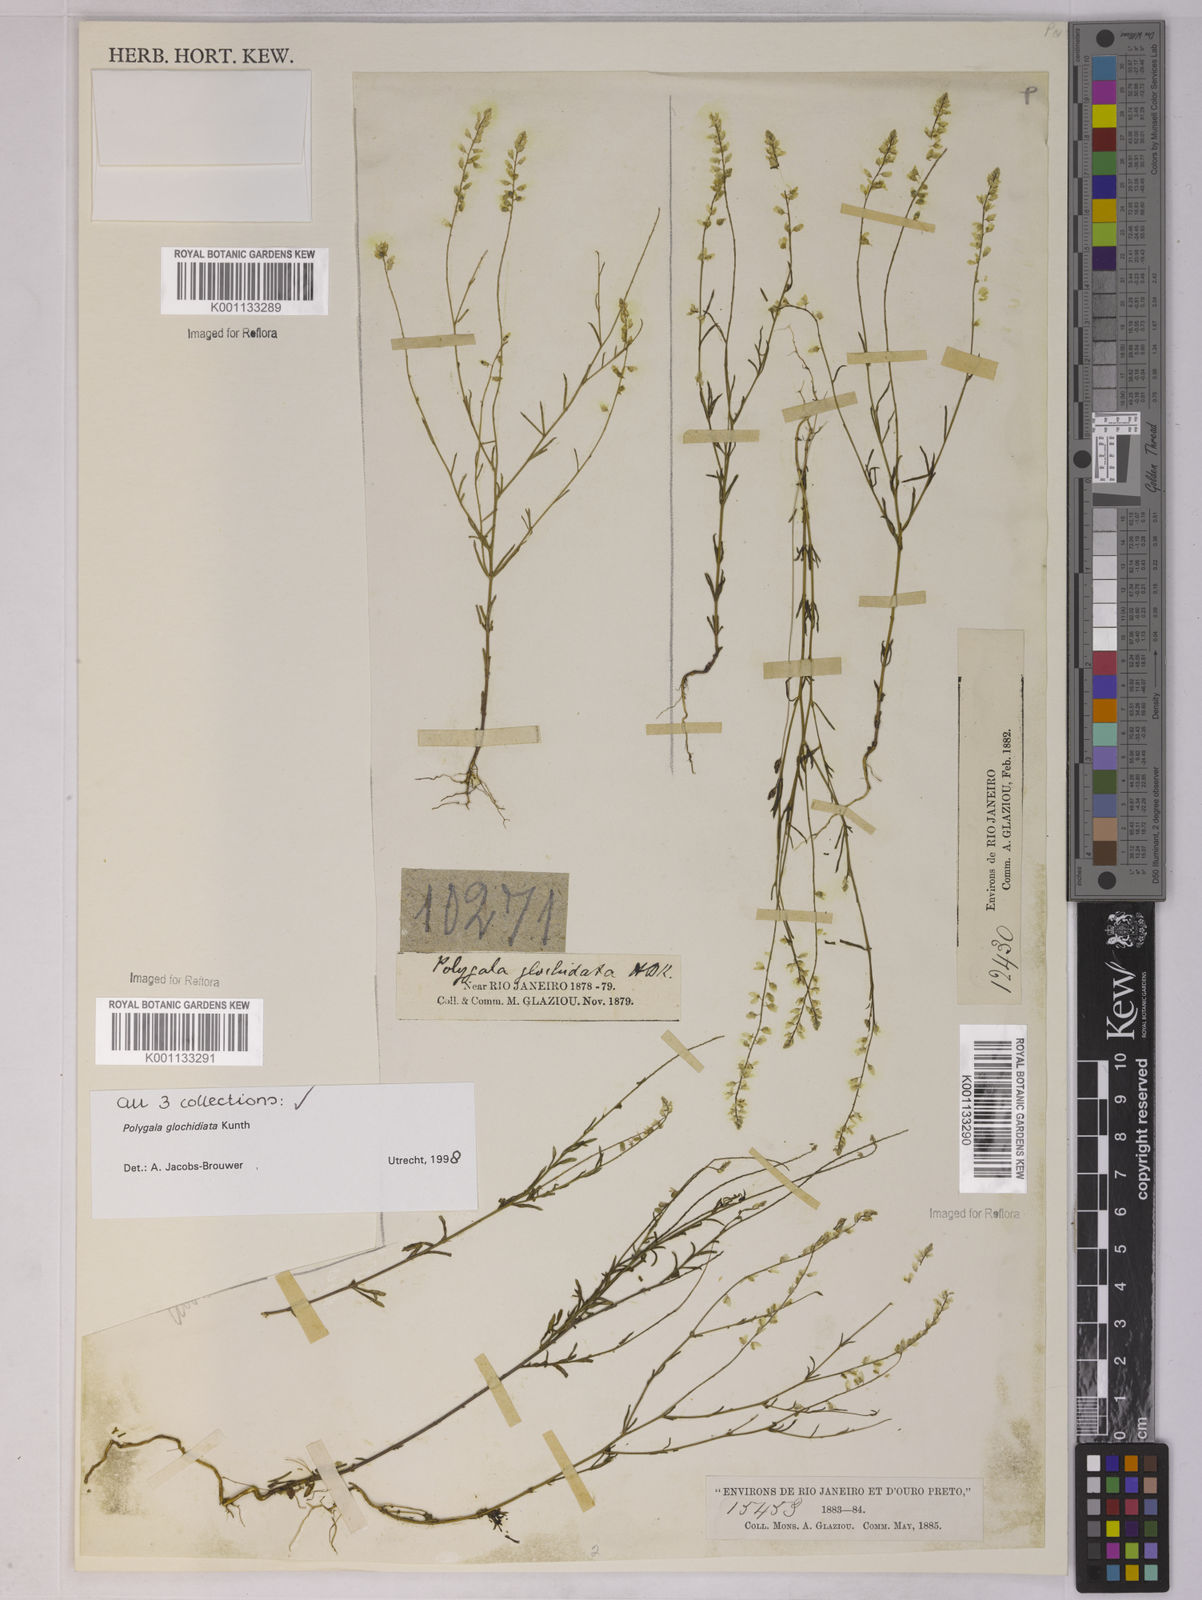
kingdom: Plantae
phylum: Tracheophyta
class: Magnoliopsida
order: Fabales
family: Polygalaceae
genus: Polygala
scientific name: Polygala glochidiata
